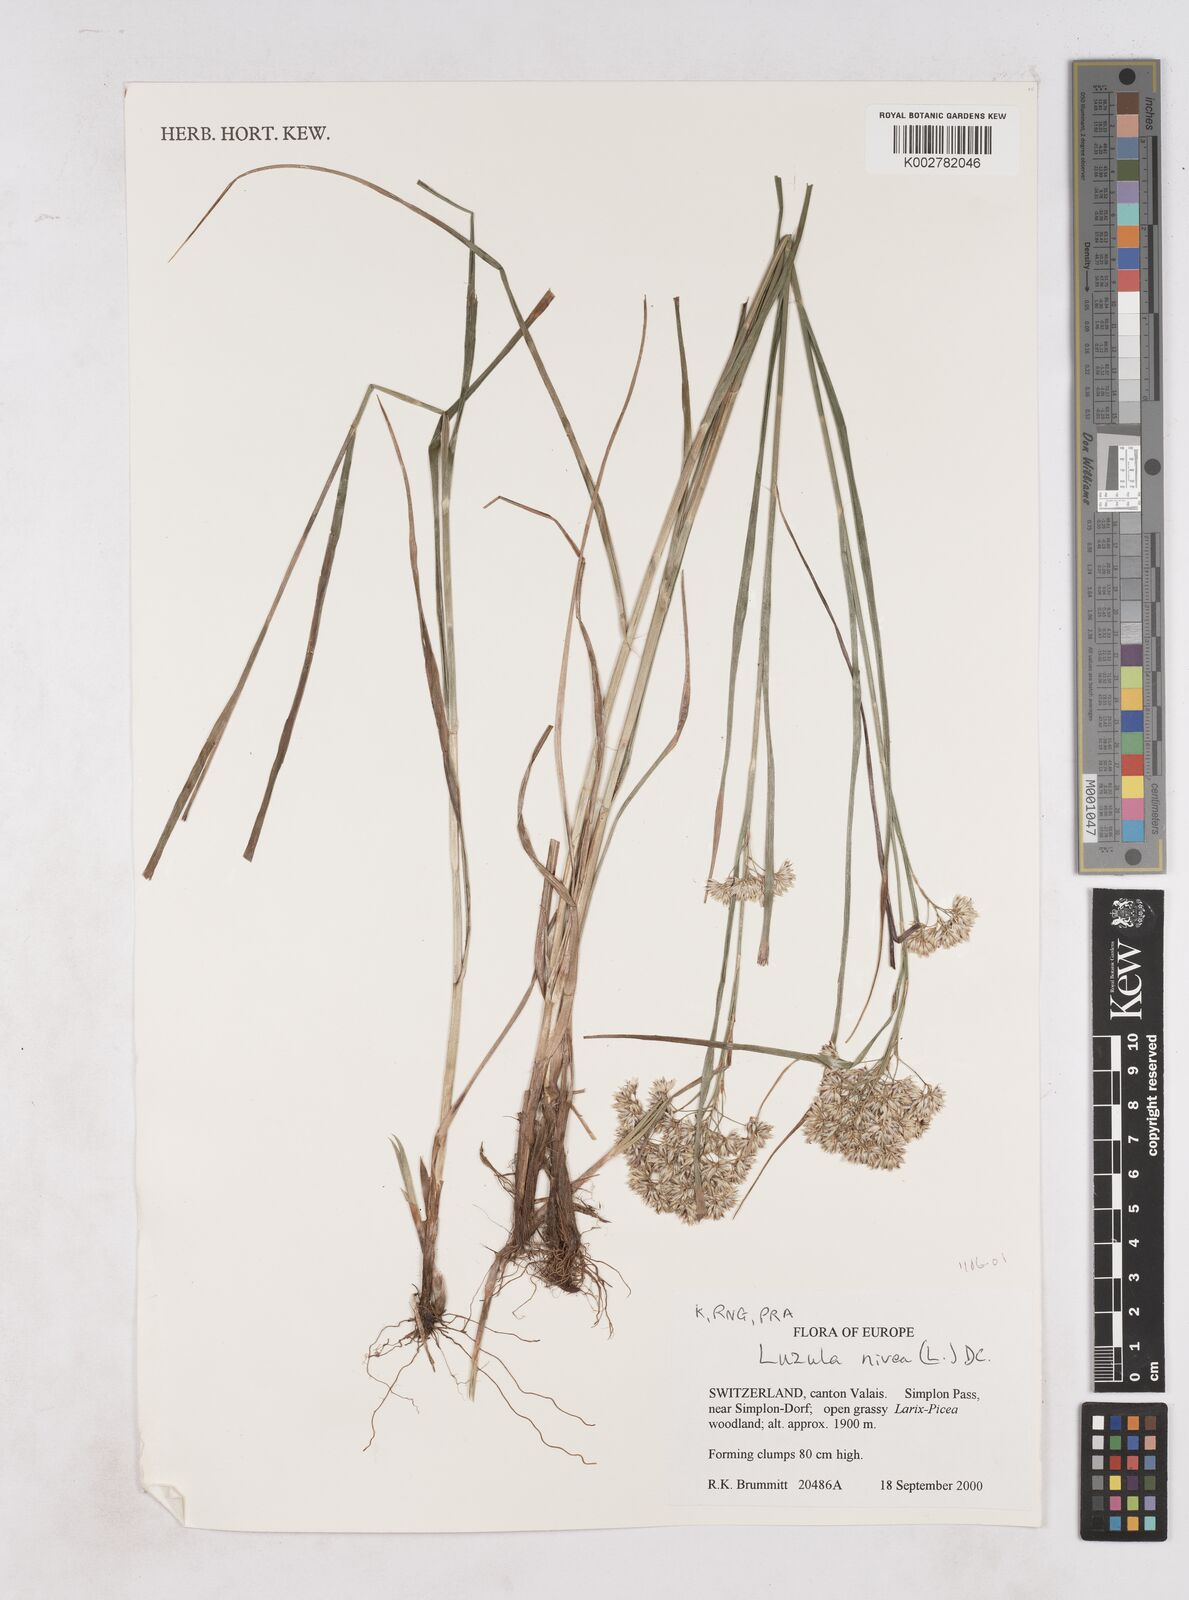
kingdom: Plantae
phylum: Tracheophyta
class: Liliopsida
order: Poales
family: Juncaceae
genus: Luzula
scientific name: Luzula nivea
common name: Snow-white wood-rush
